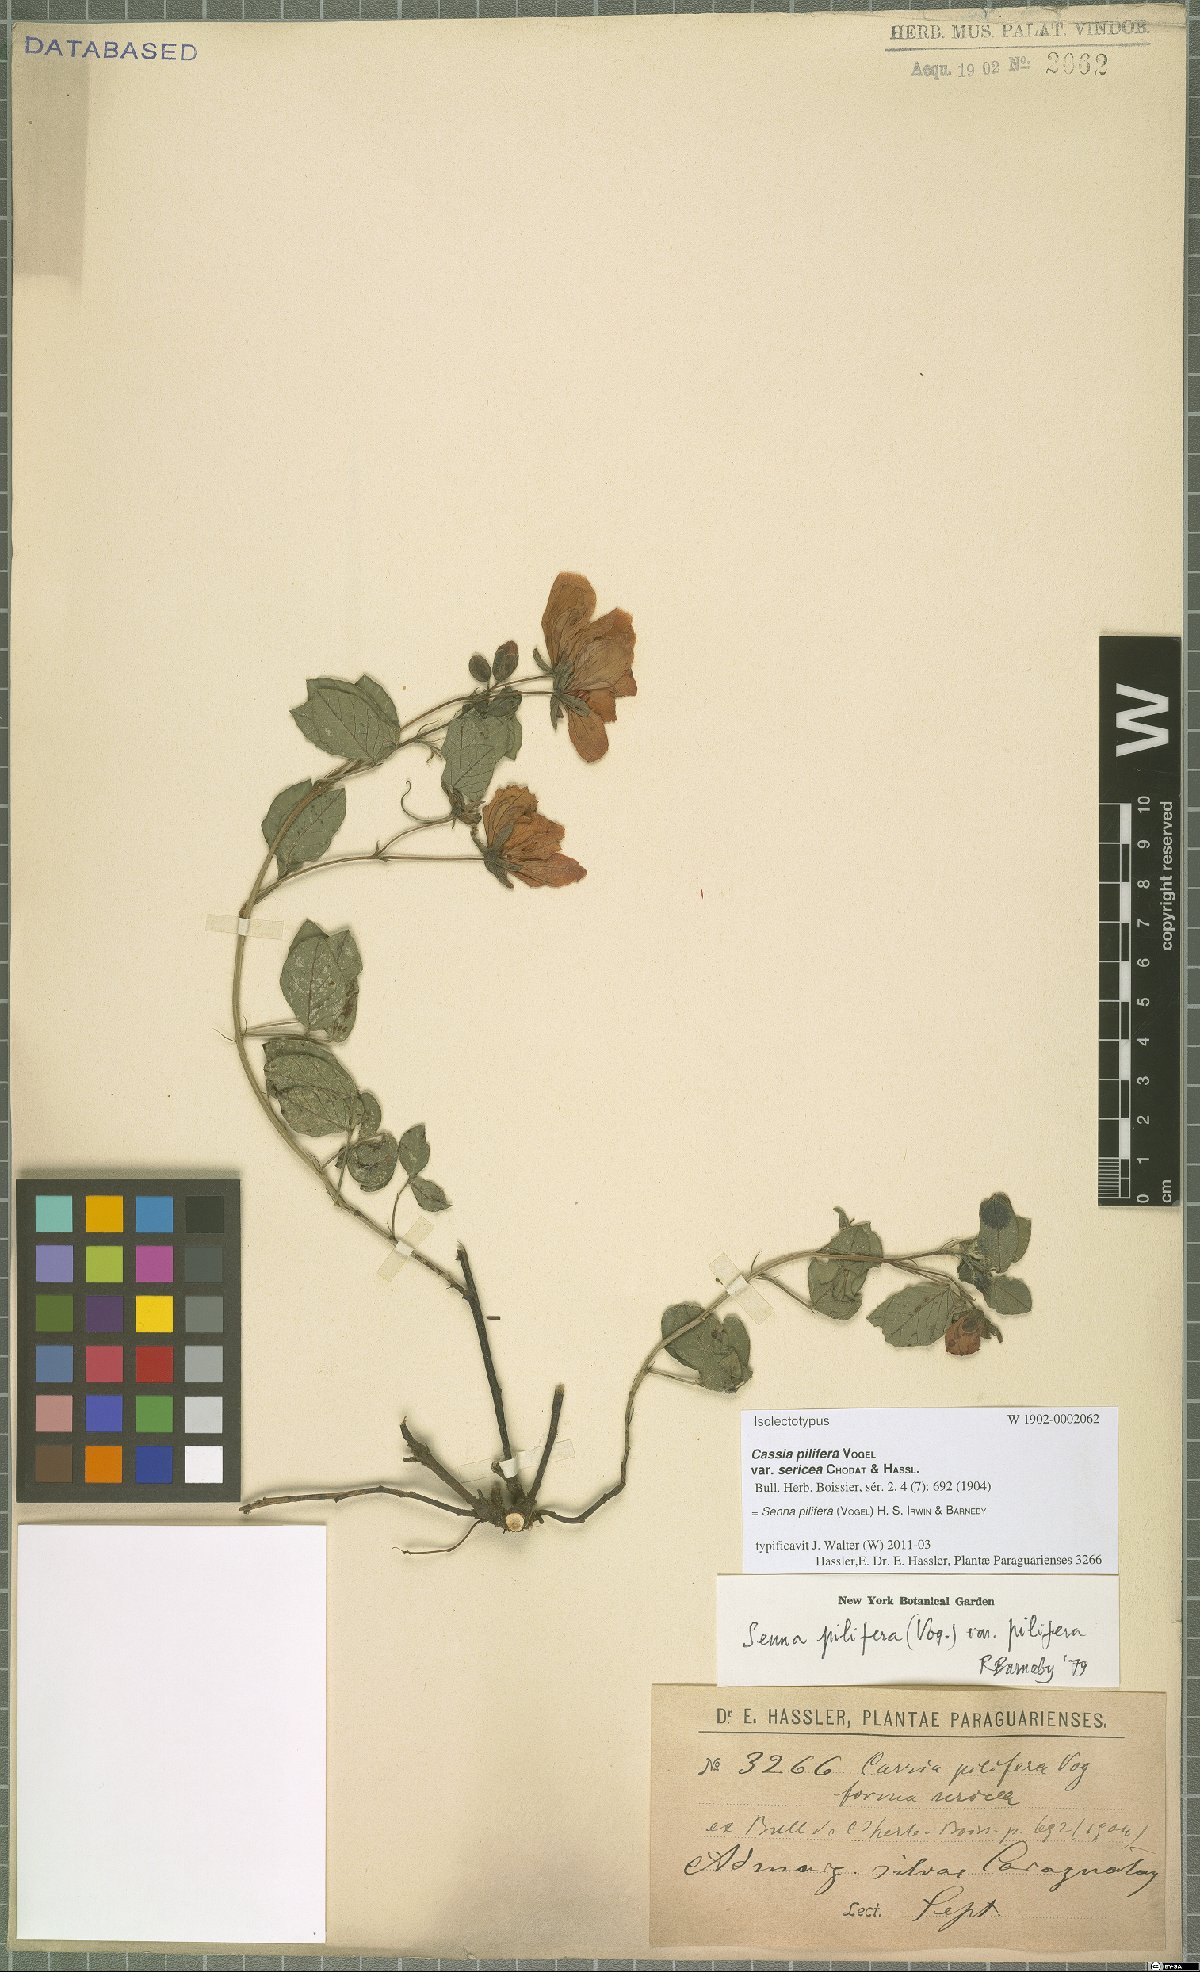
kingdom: Plantae
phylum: Tracheophyta
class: Magnoliopsida
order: Fabales
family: Fabaceae
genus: Senna
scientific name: Senna pilifera
